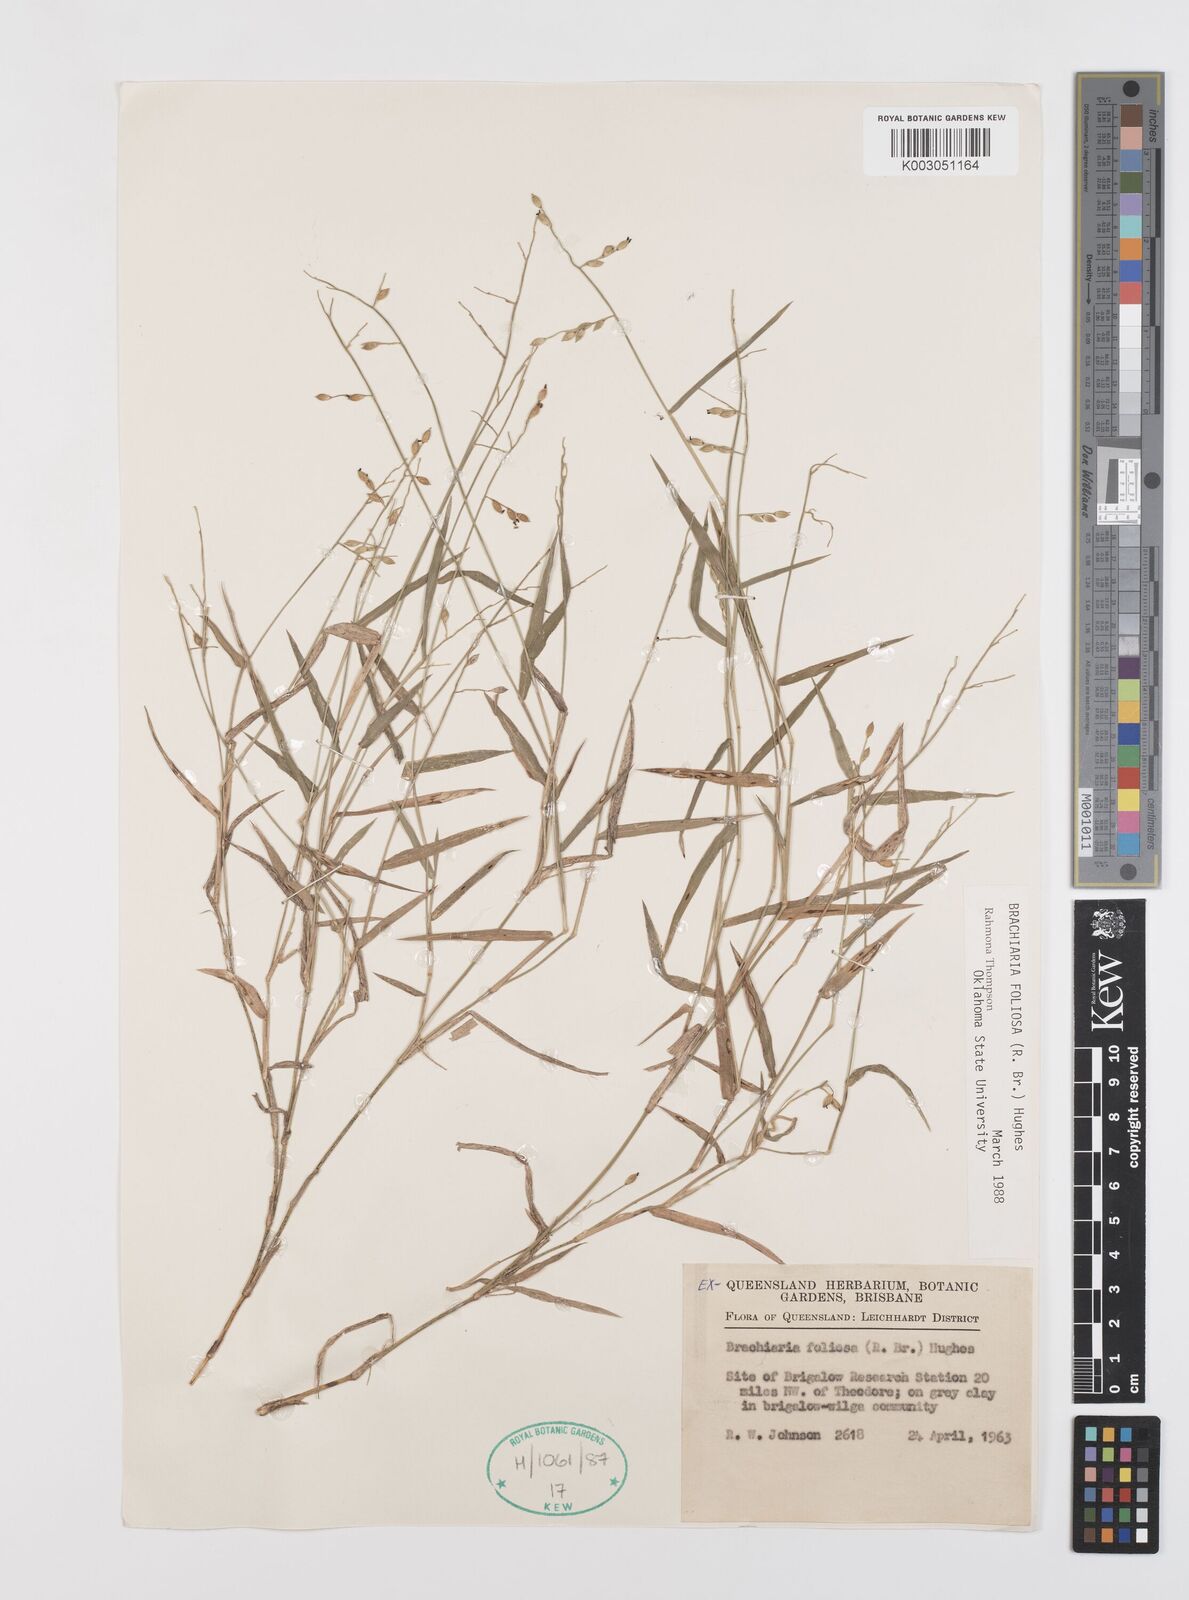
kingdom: Plantae
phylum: Tracheophyta
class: Liliopsida
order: Poales
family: Poaceae
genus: Urochloa
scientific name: Urochloa foliosa
